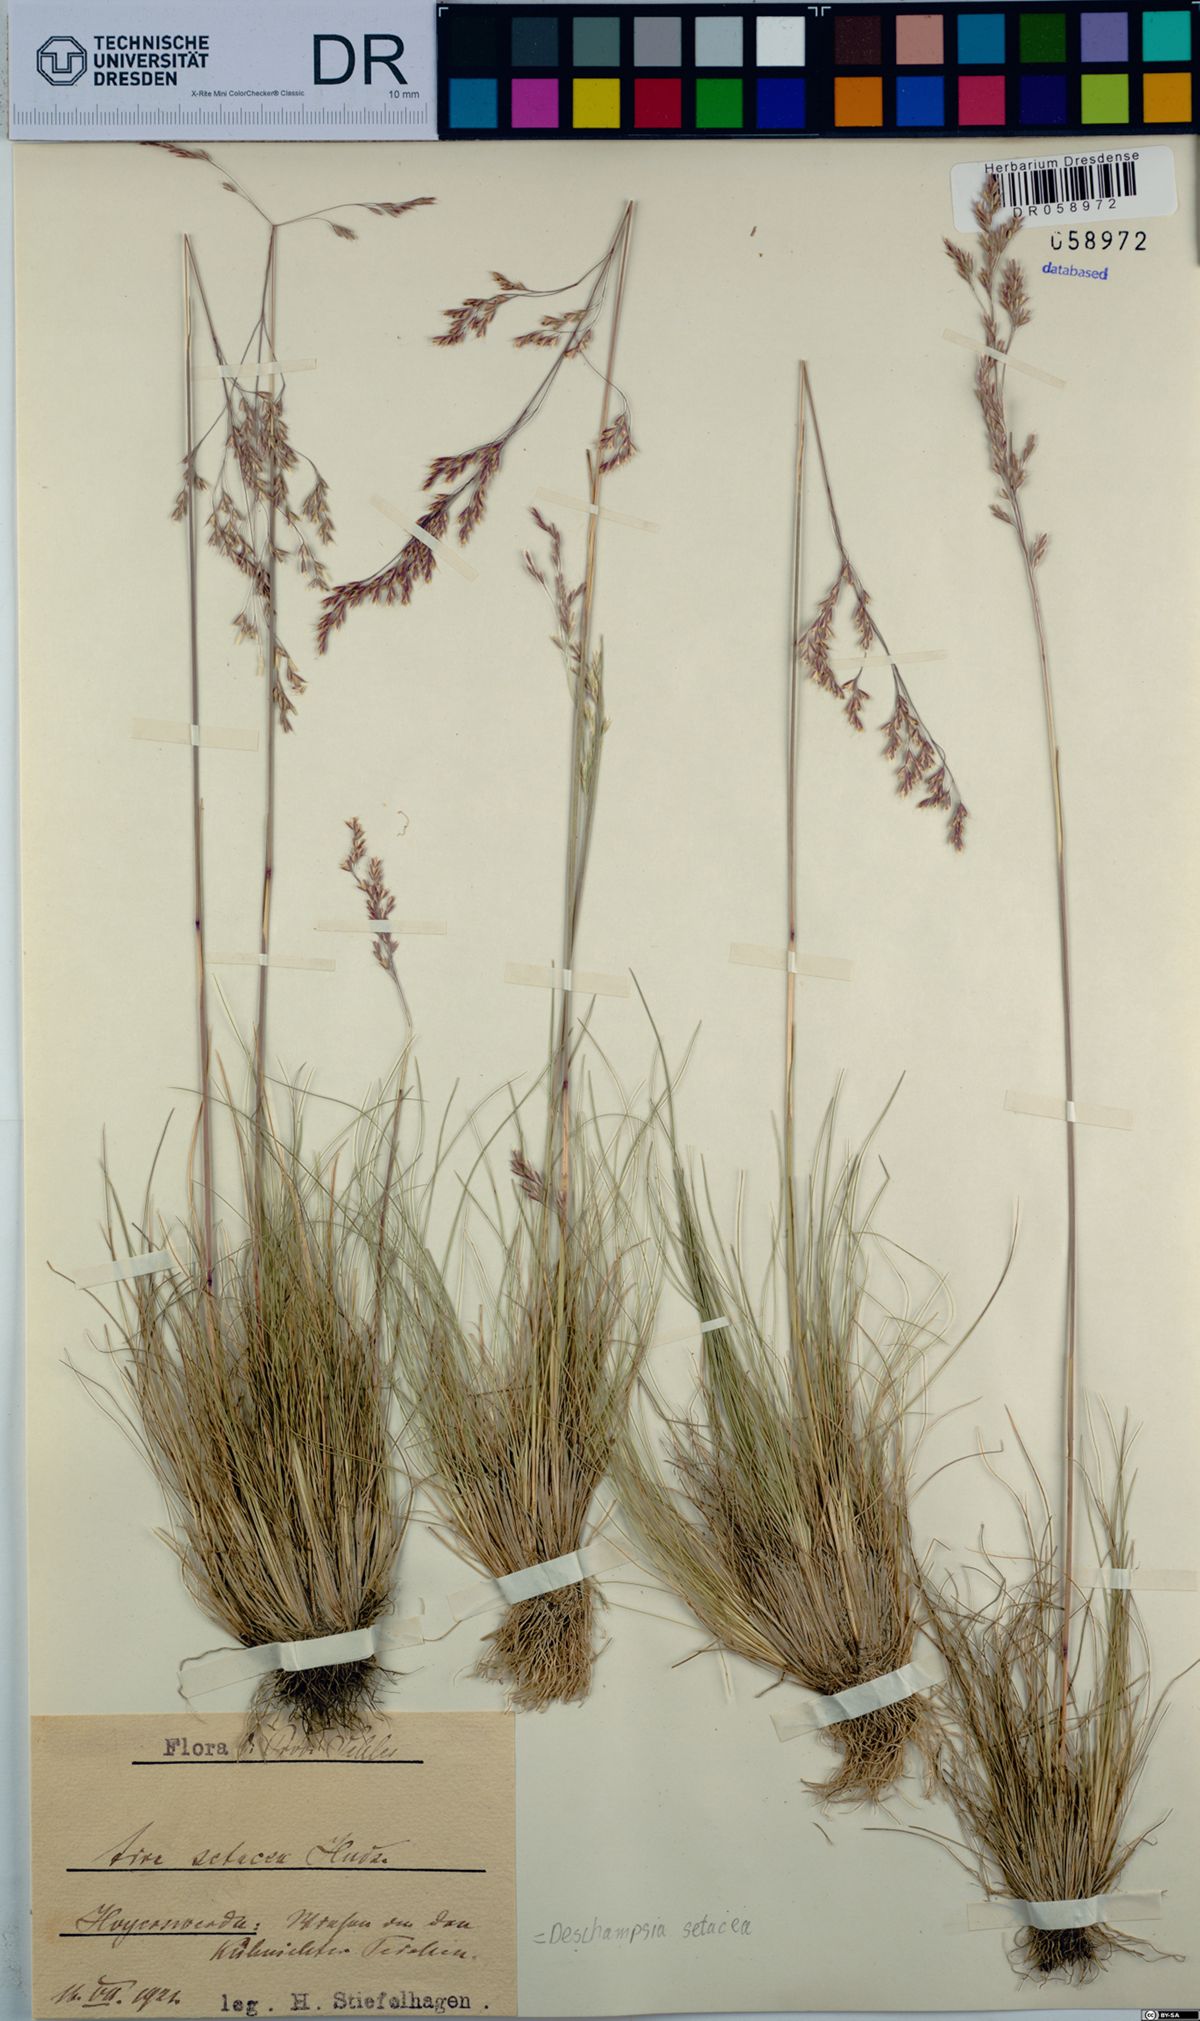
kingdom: Plantae
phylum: Tracheophyta
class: Liliopsida
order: Poales
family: Poaceae
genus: Deschampsia
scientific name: Deschampsia setacea
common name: Bog hair-grass
